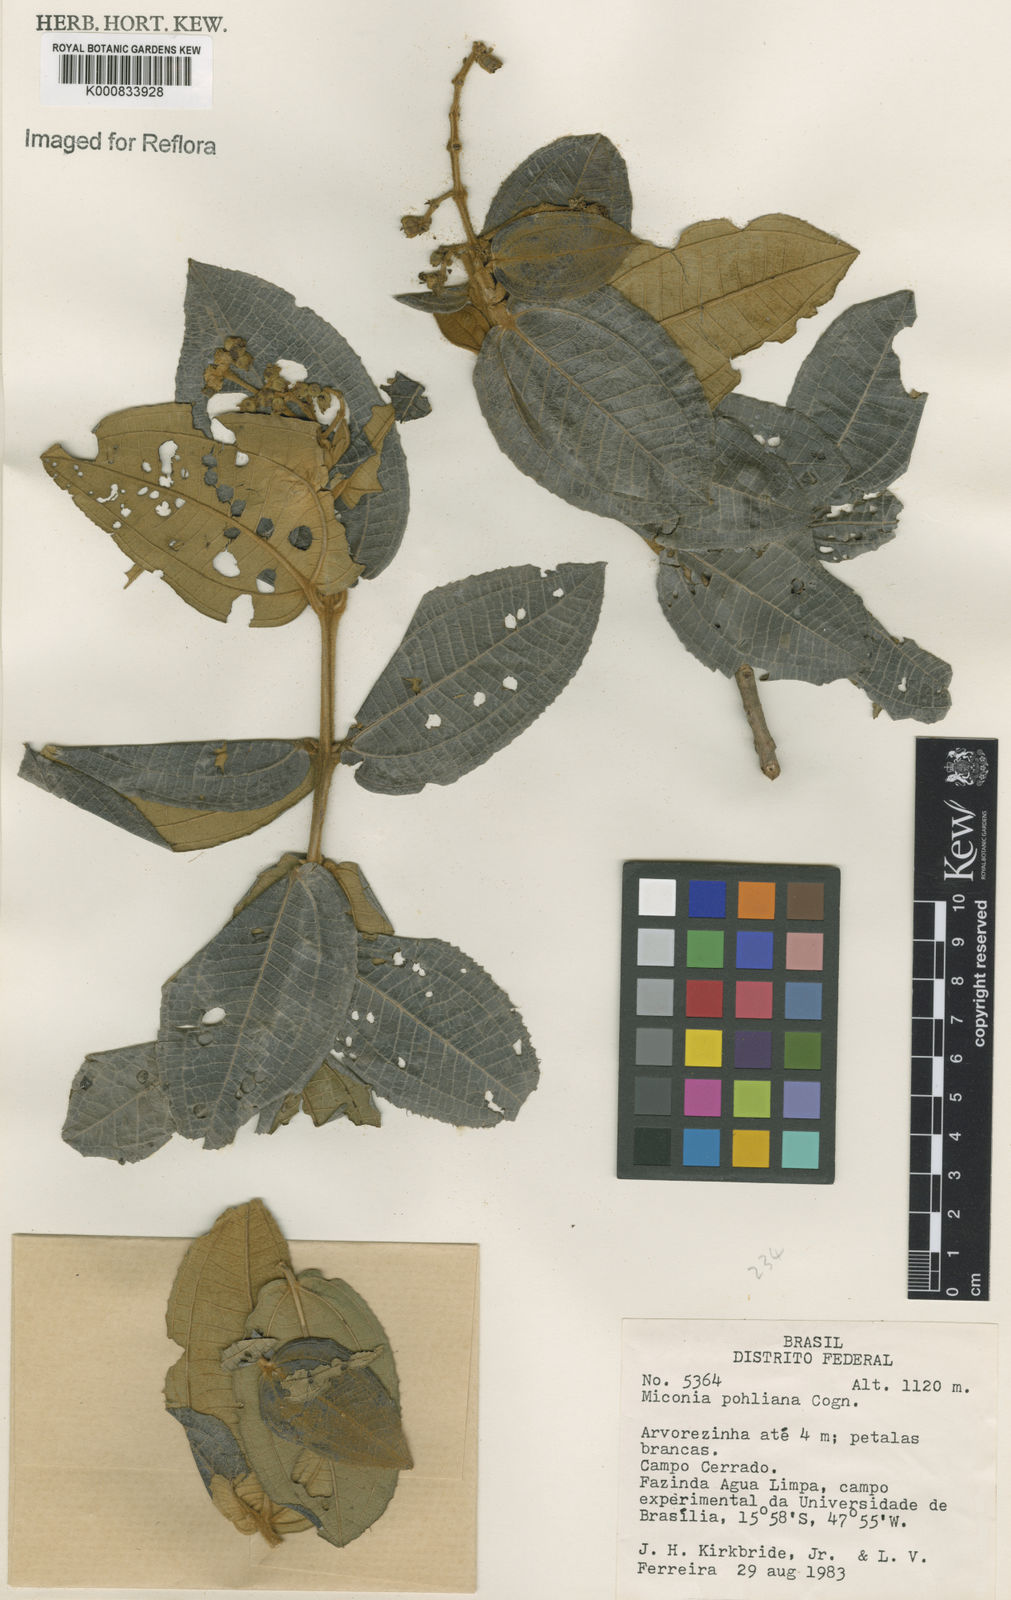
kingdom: Plantae
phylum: Tracheophyta
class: Magnoliopsida
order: Myrtales
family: Melastomataceae
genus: Miconia
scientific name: Miconia leucocarpa
